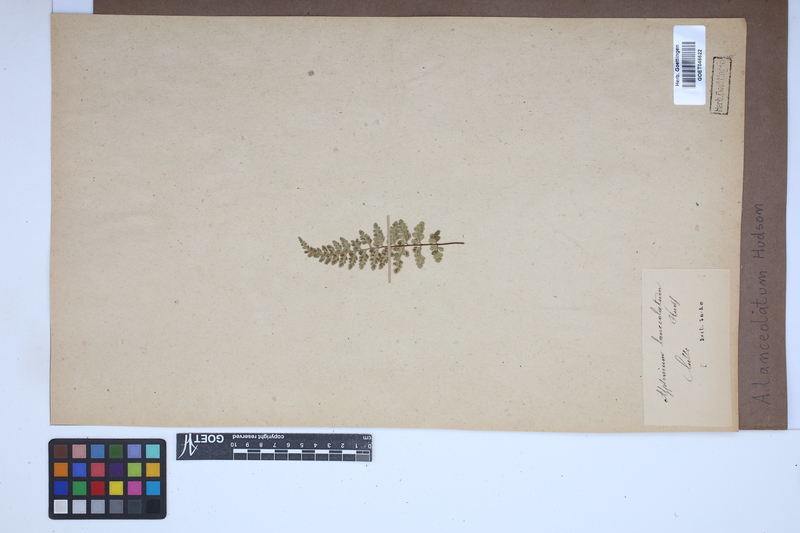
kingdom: Plantae
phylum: Tracheophyta
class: Polypodiopsida
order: Polypodiales
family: Aspleniaceae
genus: Asplenium
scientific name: Asplenium obovatum
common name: Lanceolate spleenwort
